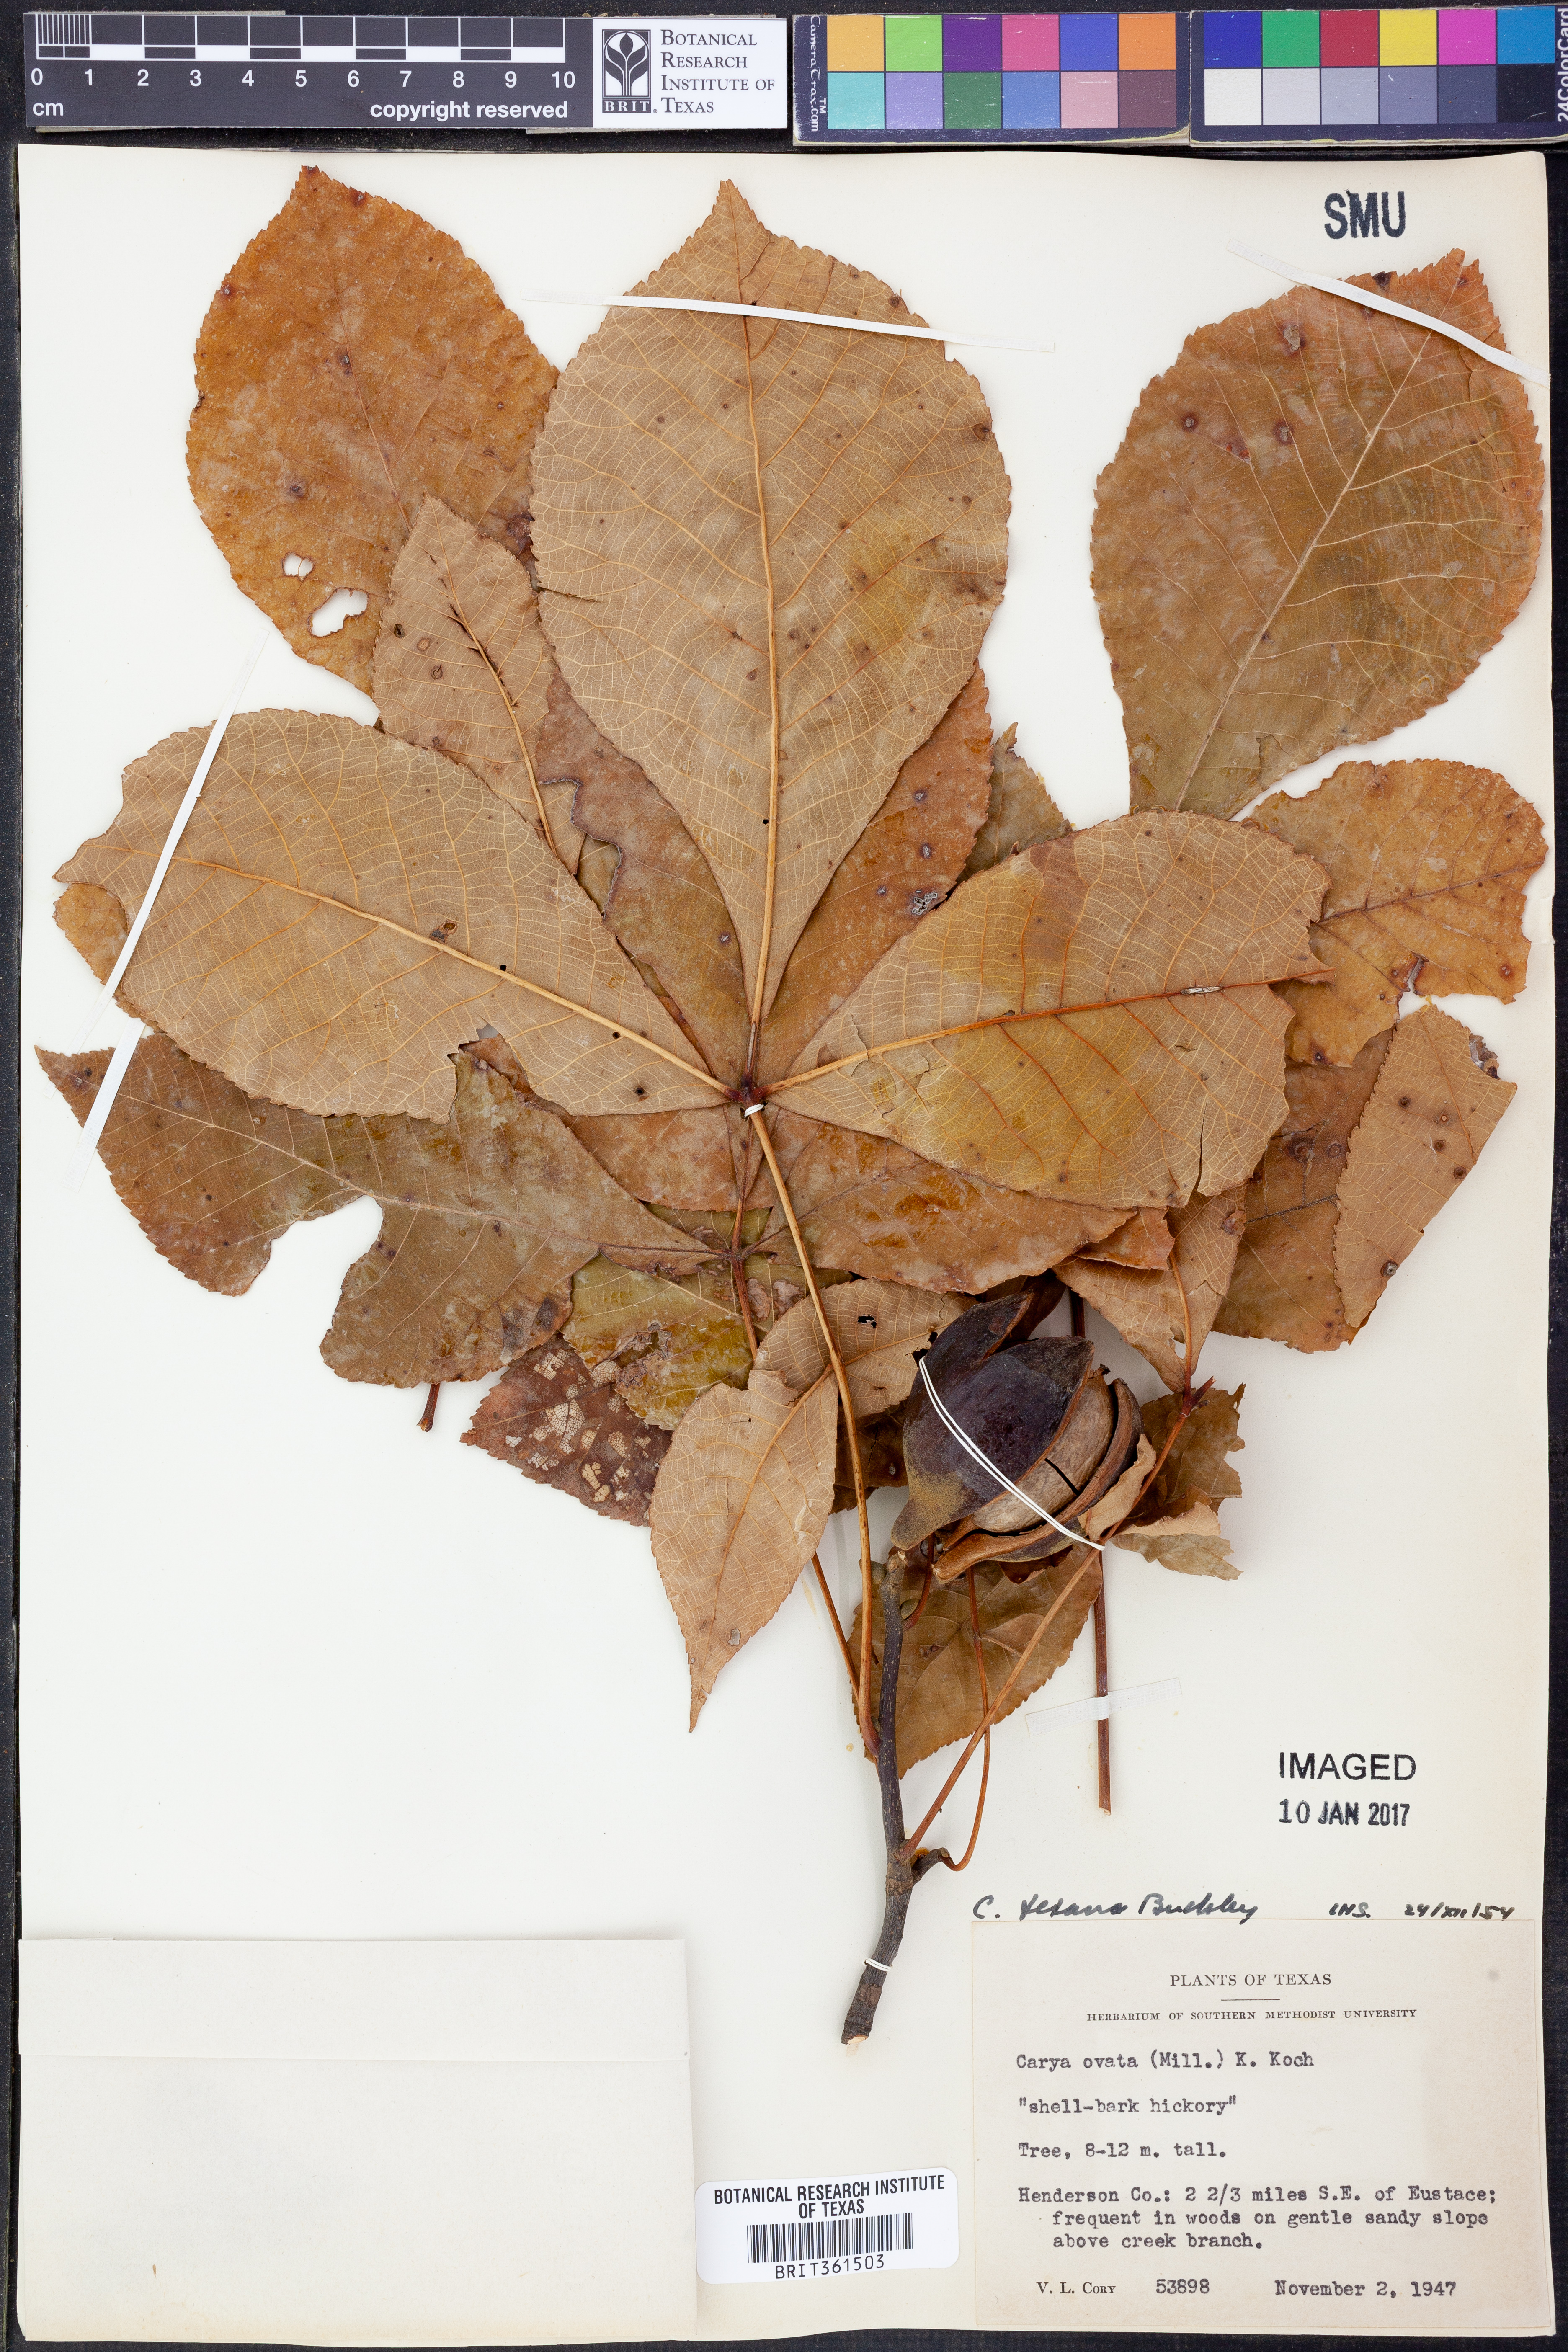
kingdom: Plantae
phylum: Tracheophyta
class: Magnoliopsida
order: Fagales
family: Juglandaceae
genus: Carya
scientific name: Carya texana
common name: Black hickory
